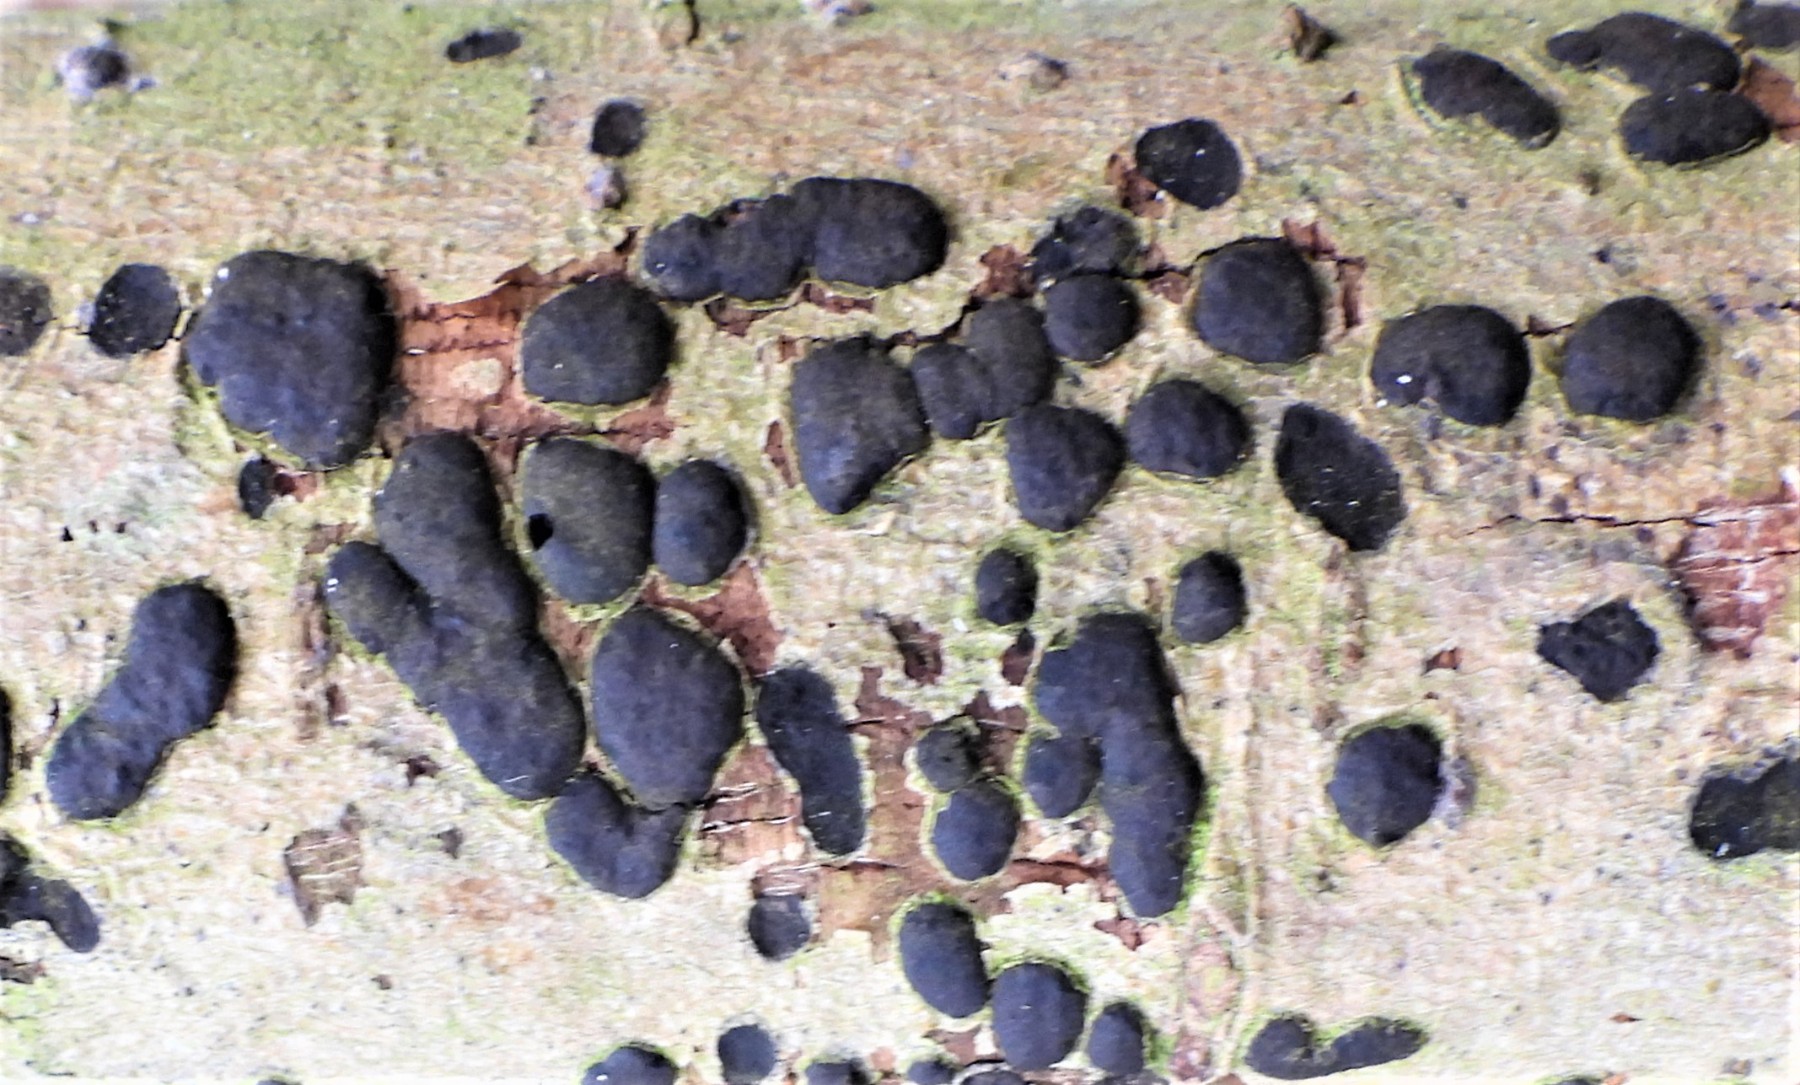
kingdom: Fungi
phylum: Ascomycota
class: Sordariomycetes
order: Xylariales
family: Diatrypaceae
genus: Diatrype
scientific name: Diatrype bullata
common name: pile-kulskorpe
